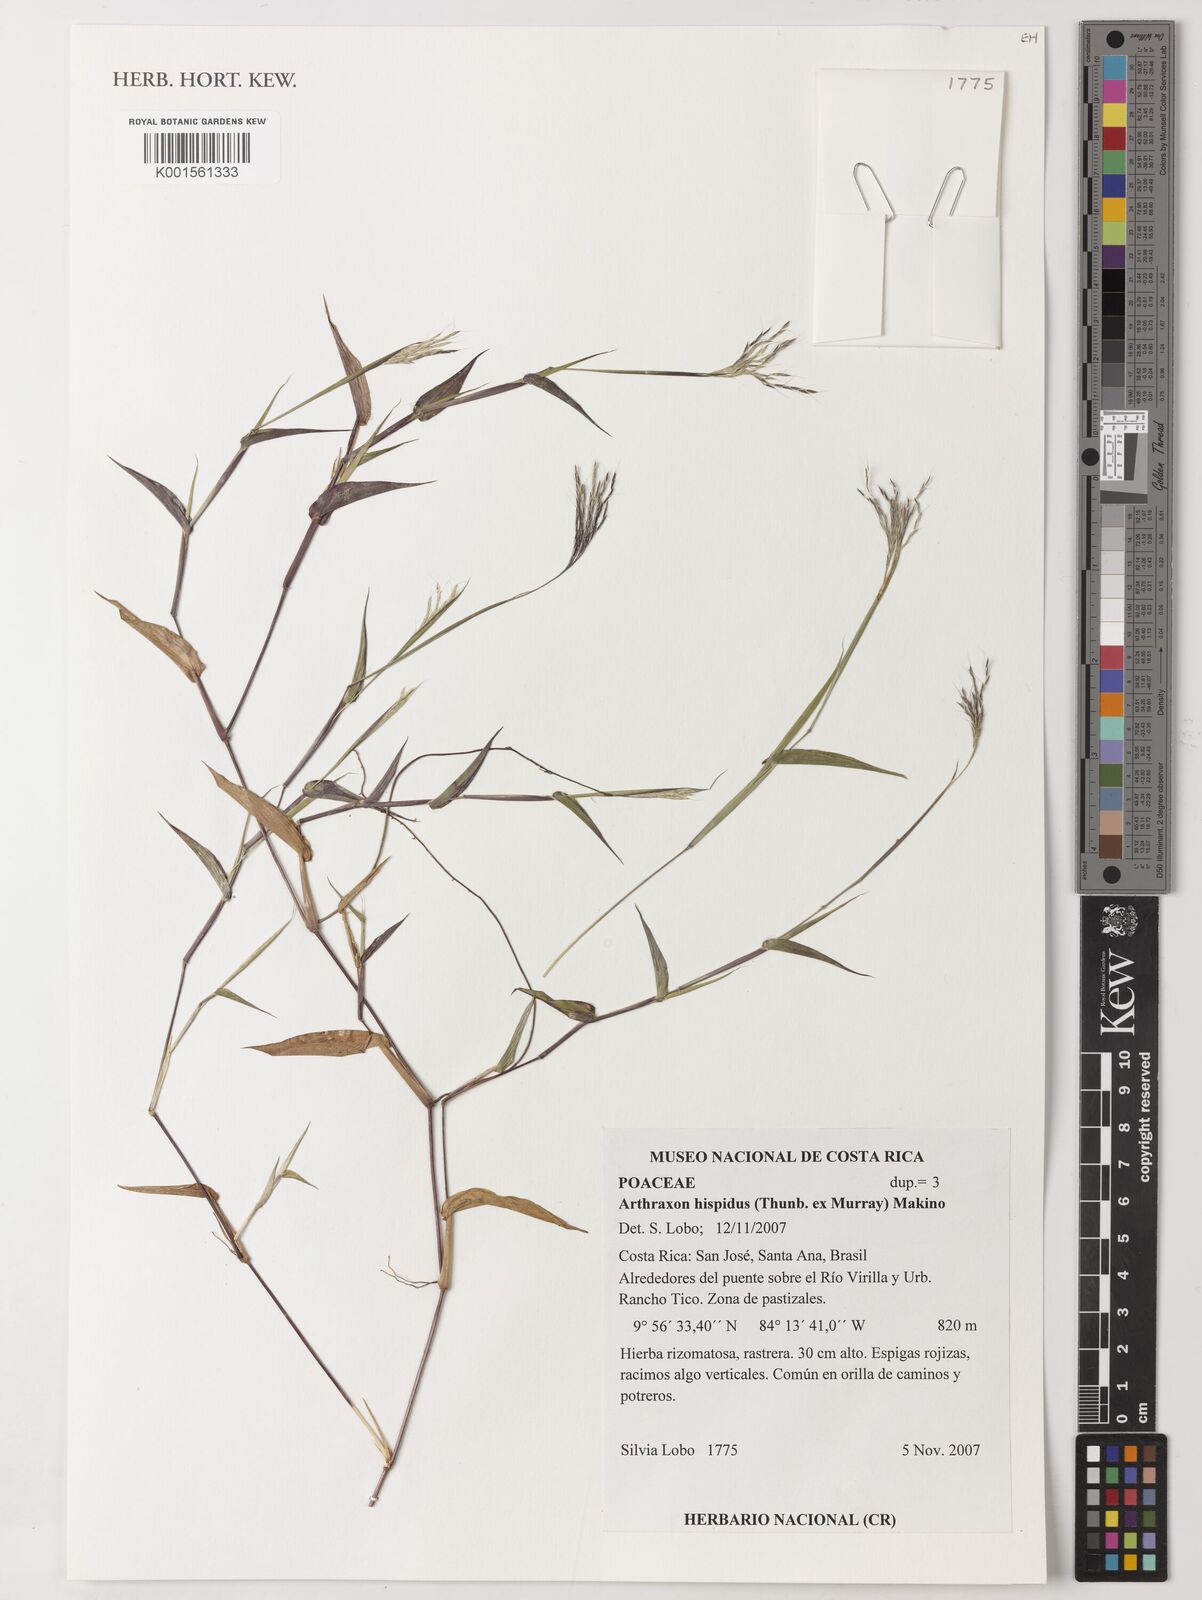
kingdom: Plantae
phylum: Tracheophyta
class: Liliopsida
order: Poales
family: Poaceae
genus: Arthraxon
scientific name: Arthraxon hispidus
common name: Small carpgrass
